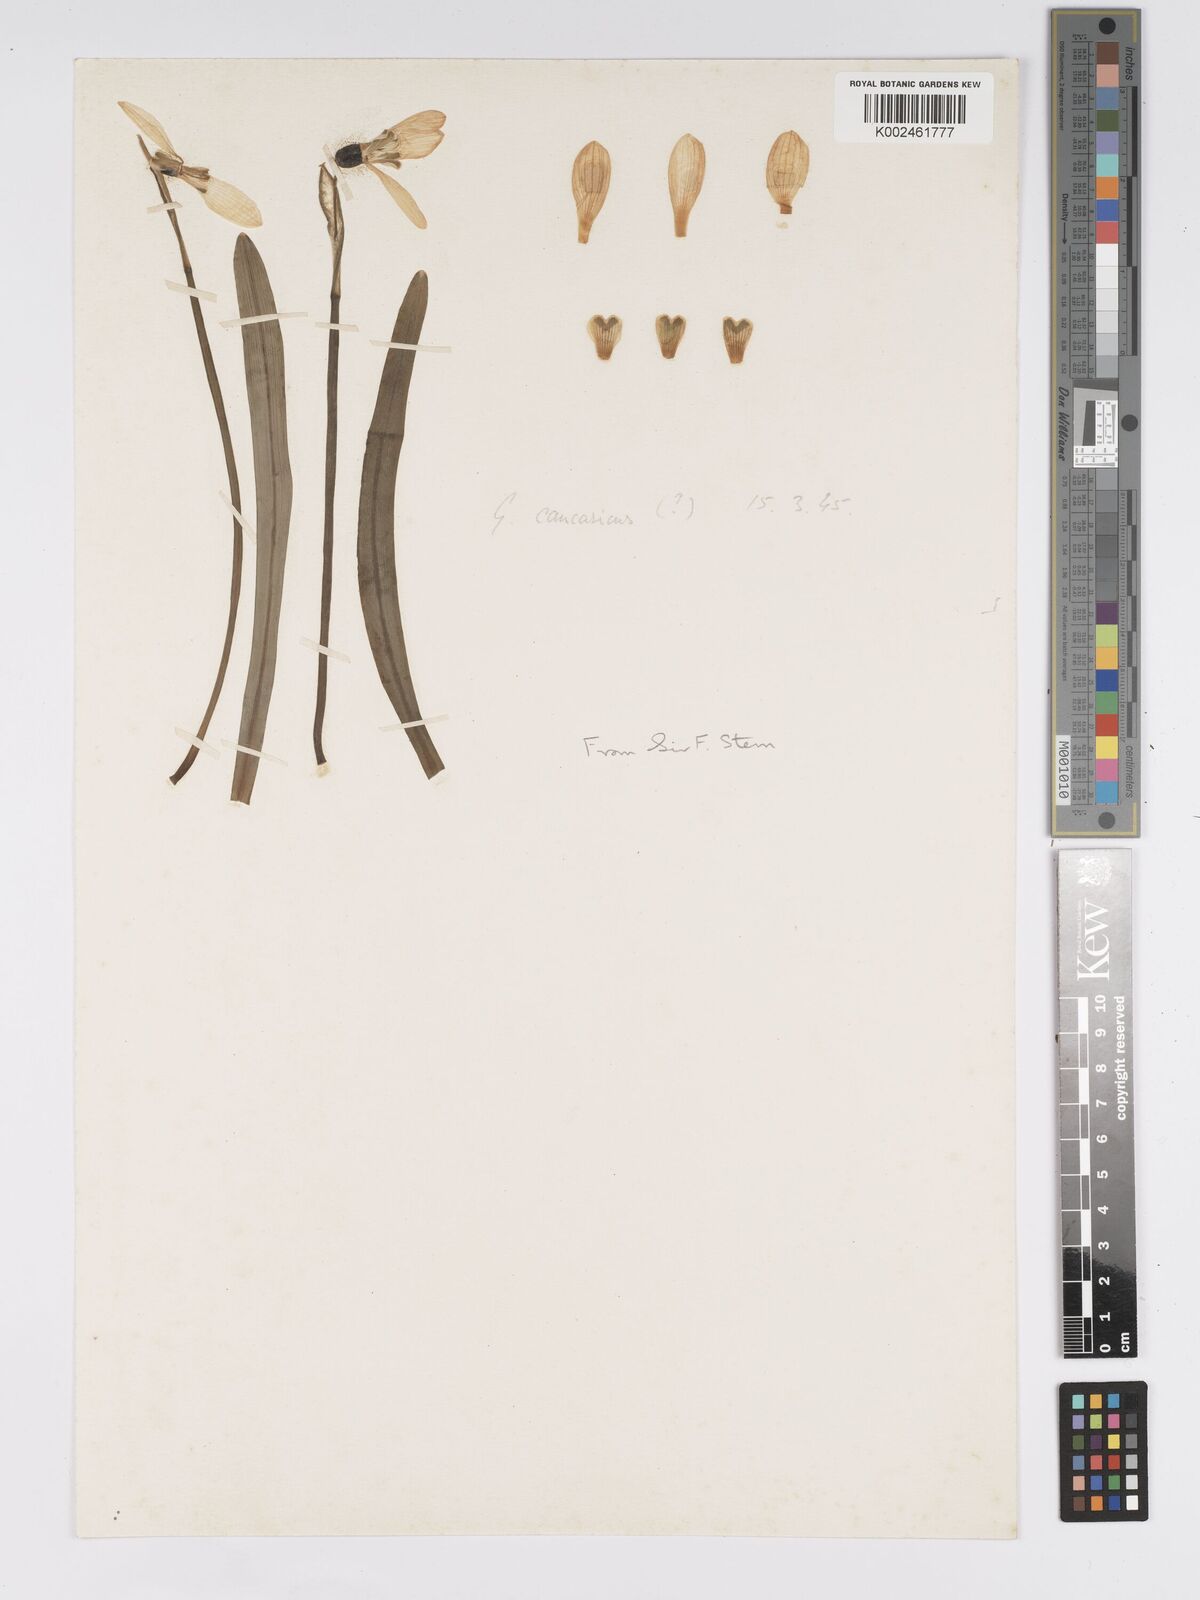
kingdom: Plantae
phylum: Tracheophyta
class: Liliopsida
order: Asparagales
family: Amaryllidaceae
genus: Galanthus
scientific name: Galanthus
